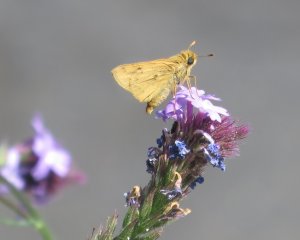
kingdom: Animalia
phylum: Arthropoda
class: Insecta
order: Lepidoptera
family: Hesperiidae
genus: Hylephila
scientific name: Hylephila phyleus
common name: Fiery Skipper
